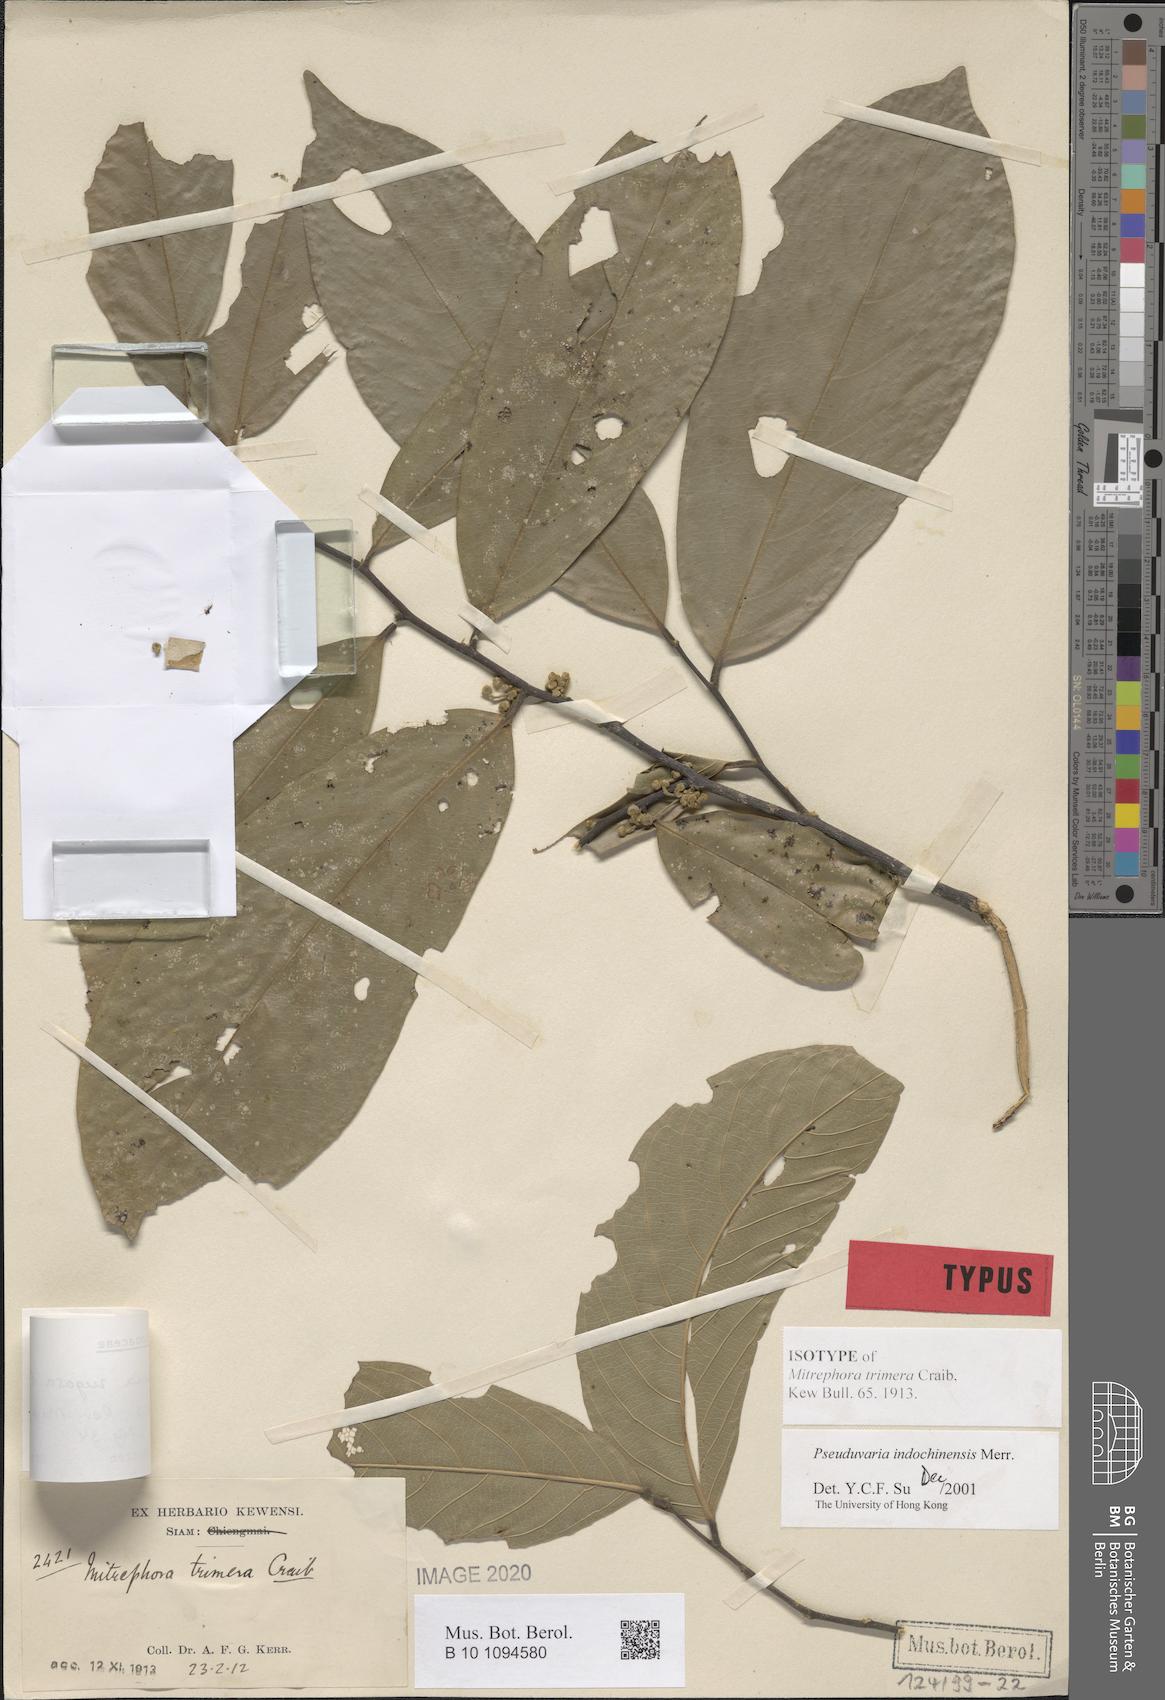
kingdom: Plantae
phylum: Tracheophyta
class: Magnoliopsida
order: Magnoliales
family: Annonaceae
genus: Pseuduvaria
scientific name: Pseuduvaria trimera
